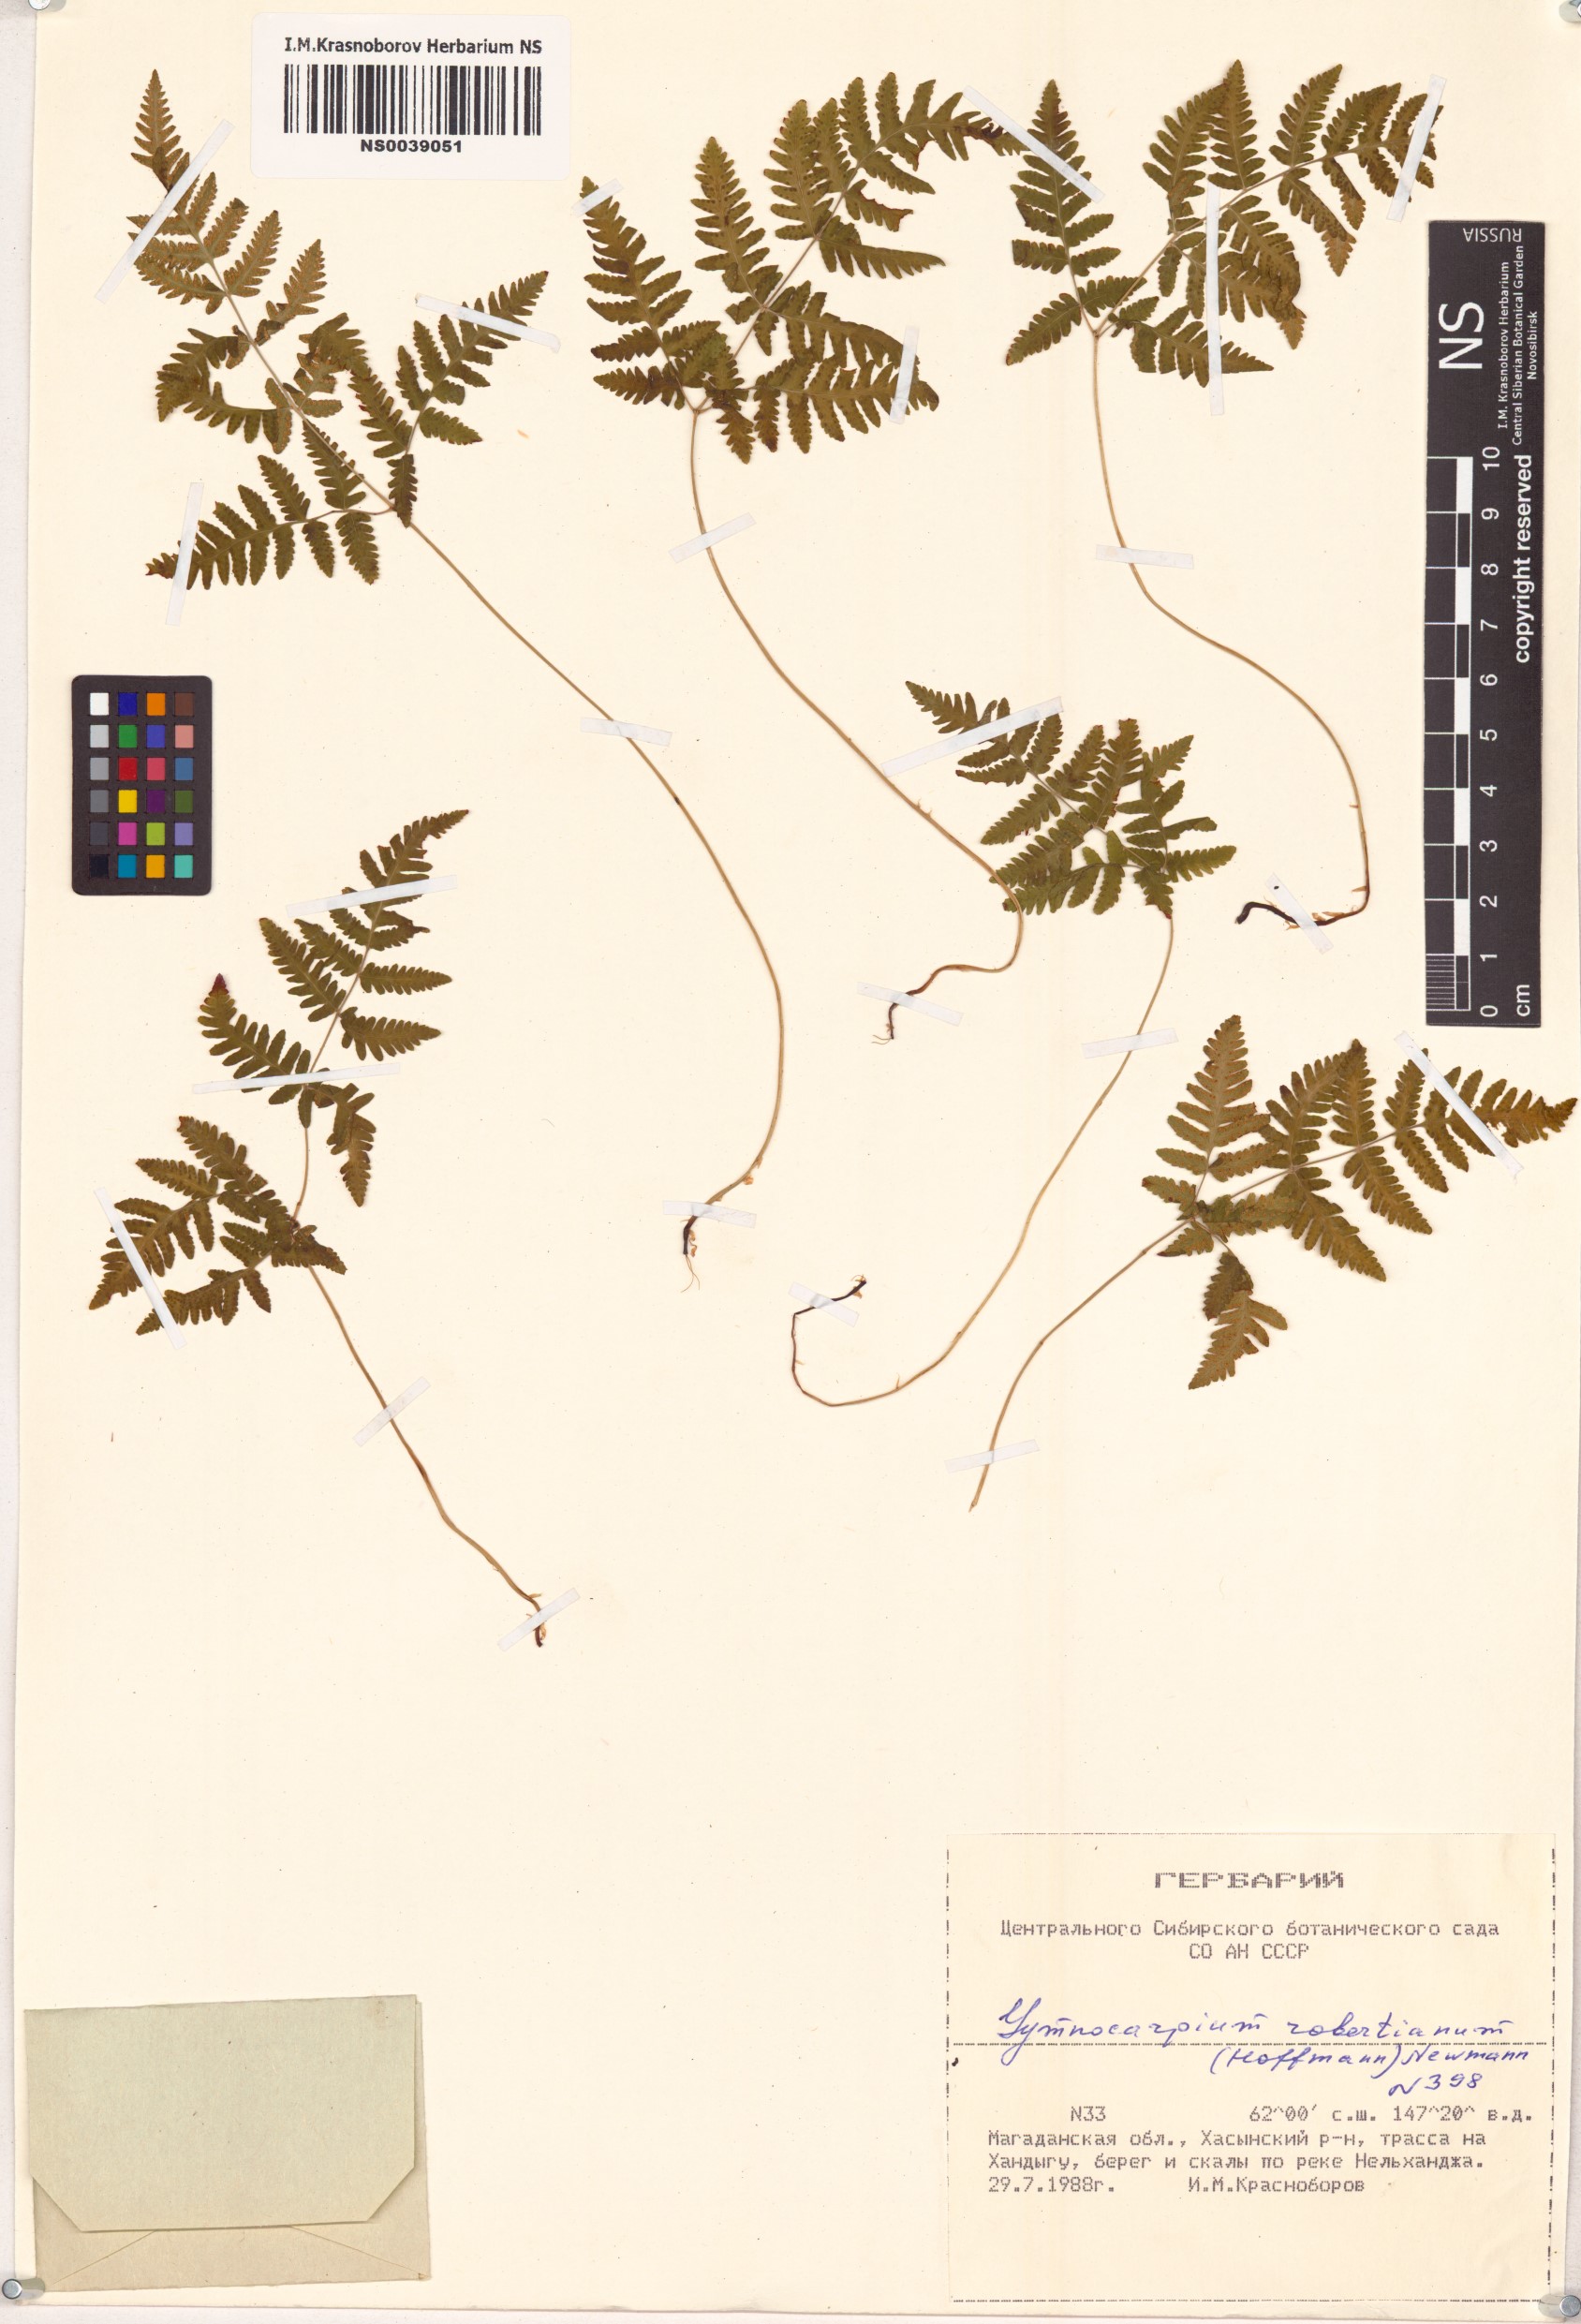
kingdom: Plantae
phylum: Tracheophyta
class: Polypodiopsida
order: Polypodiales
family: Cystopteridaceae
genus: Gymnocarpium
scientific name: Gymnocarpium robertianum
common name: Limestone fern
